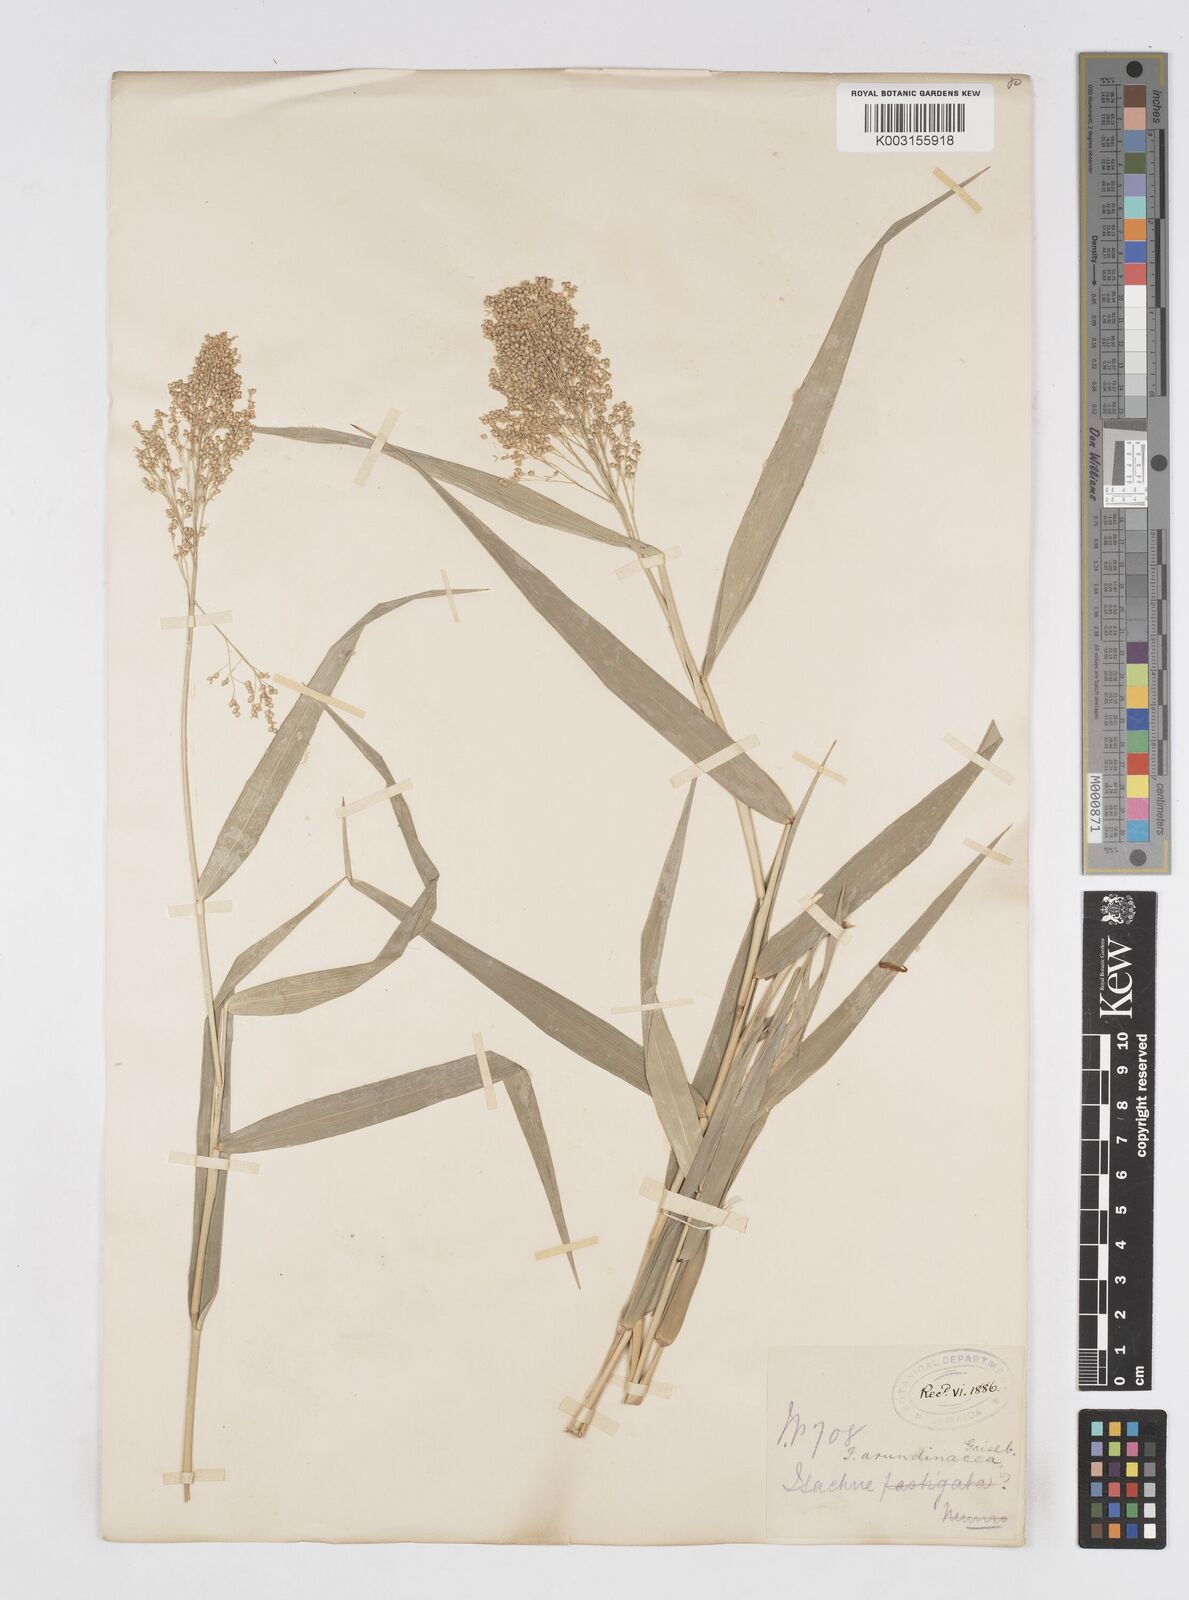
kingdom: Plantae
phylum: Tracheophyta
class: Liliopsida
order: Poales
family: Poaceae
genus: Isachne
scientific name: Isachne arundinacea
